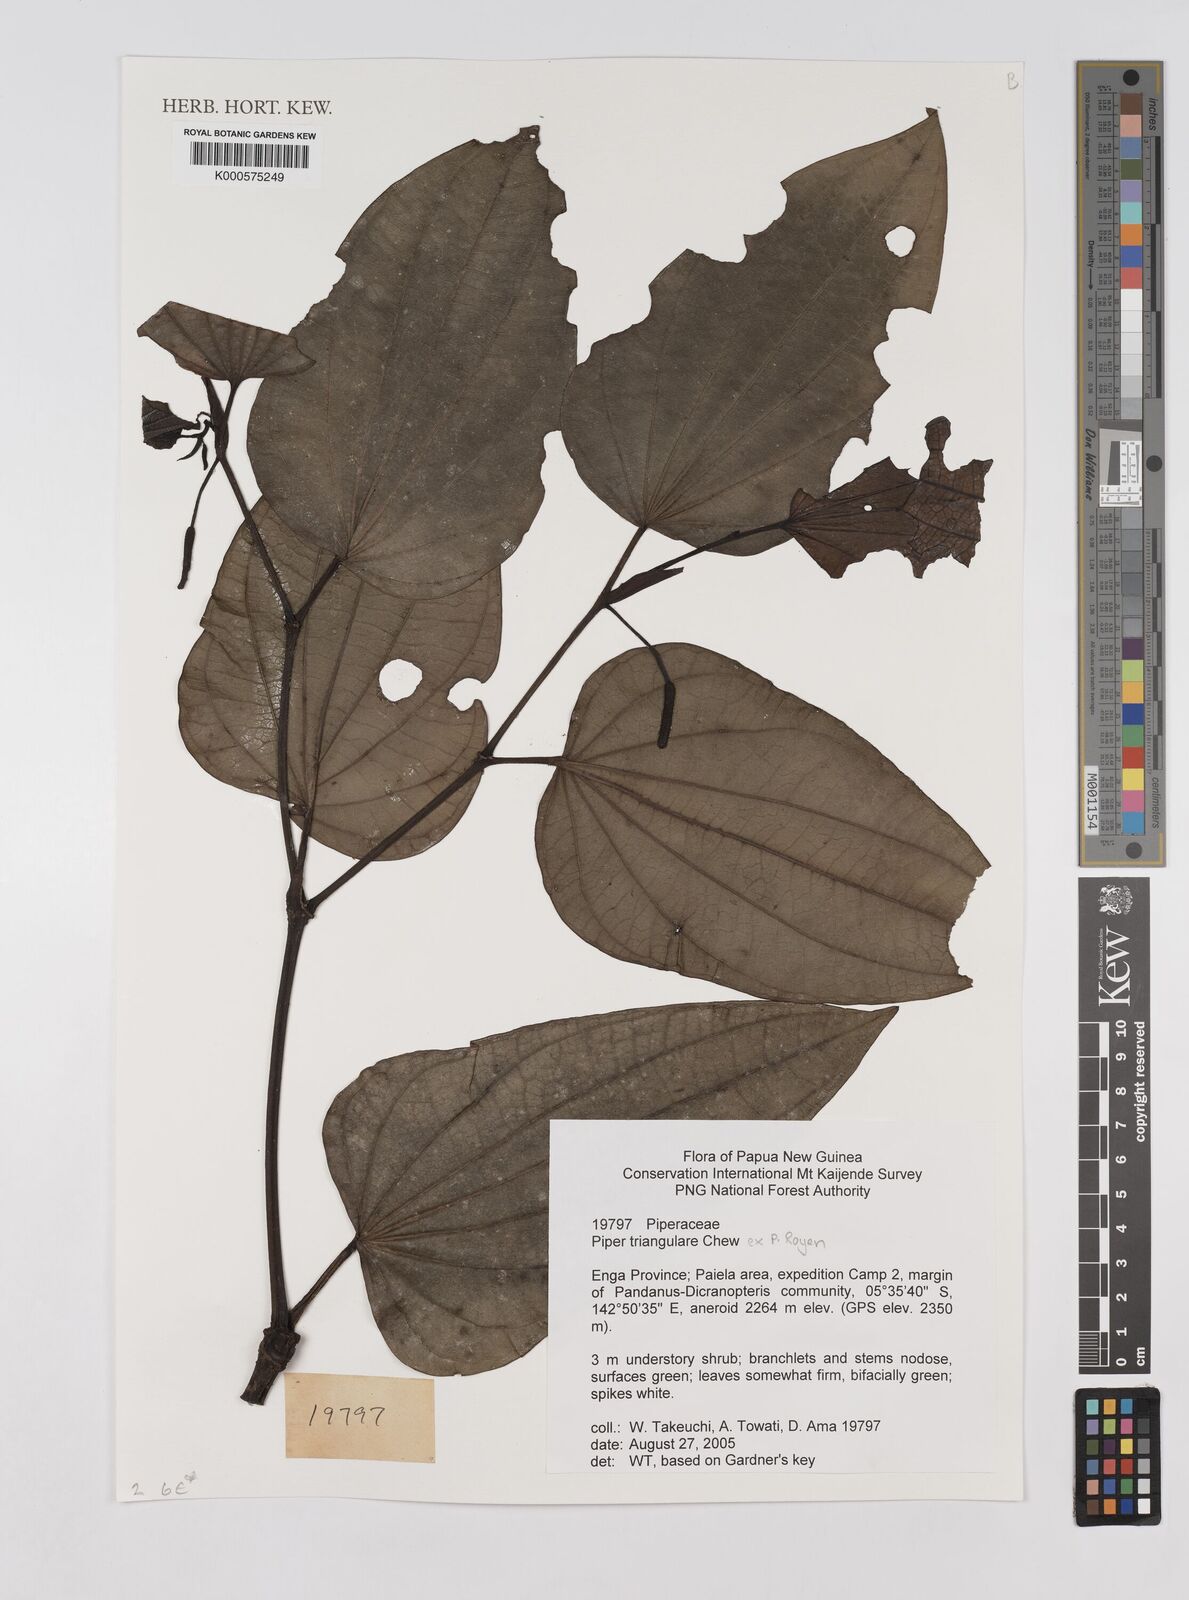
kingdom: Plantae
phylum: Tracheophyta
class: Magnoliopsida
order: Piperales
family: Piperaceae
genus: Piper
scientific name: Piper triangulare
